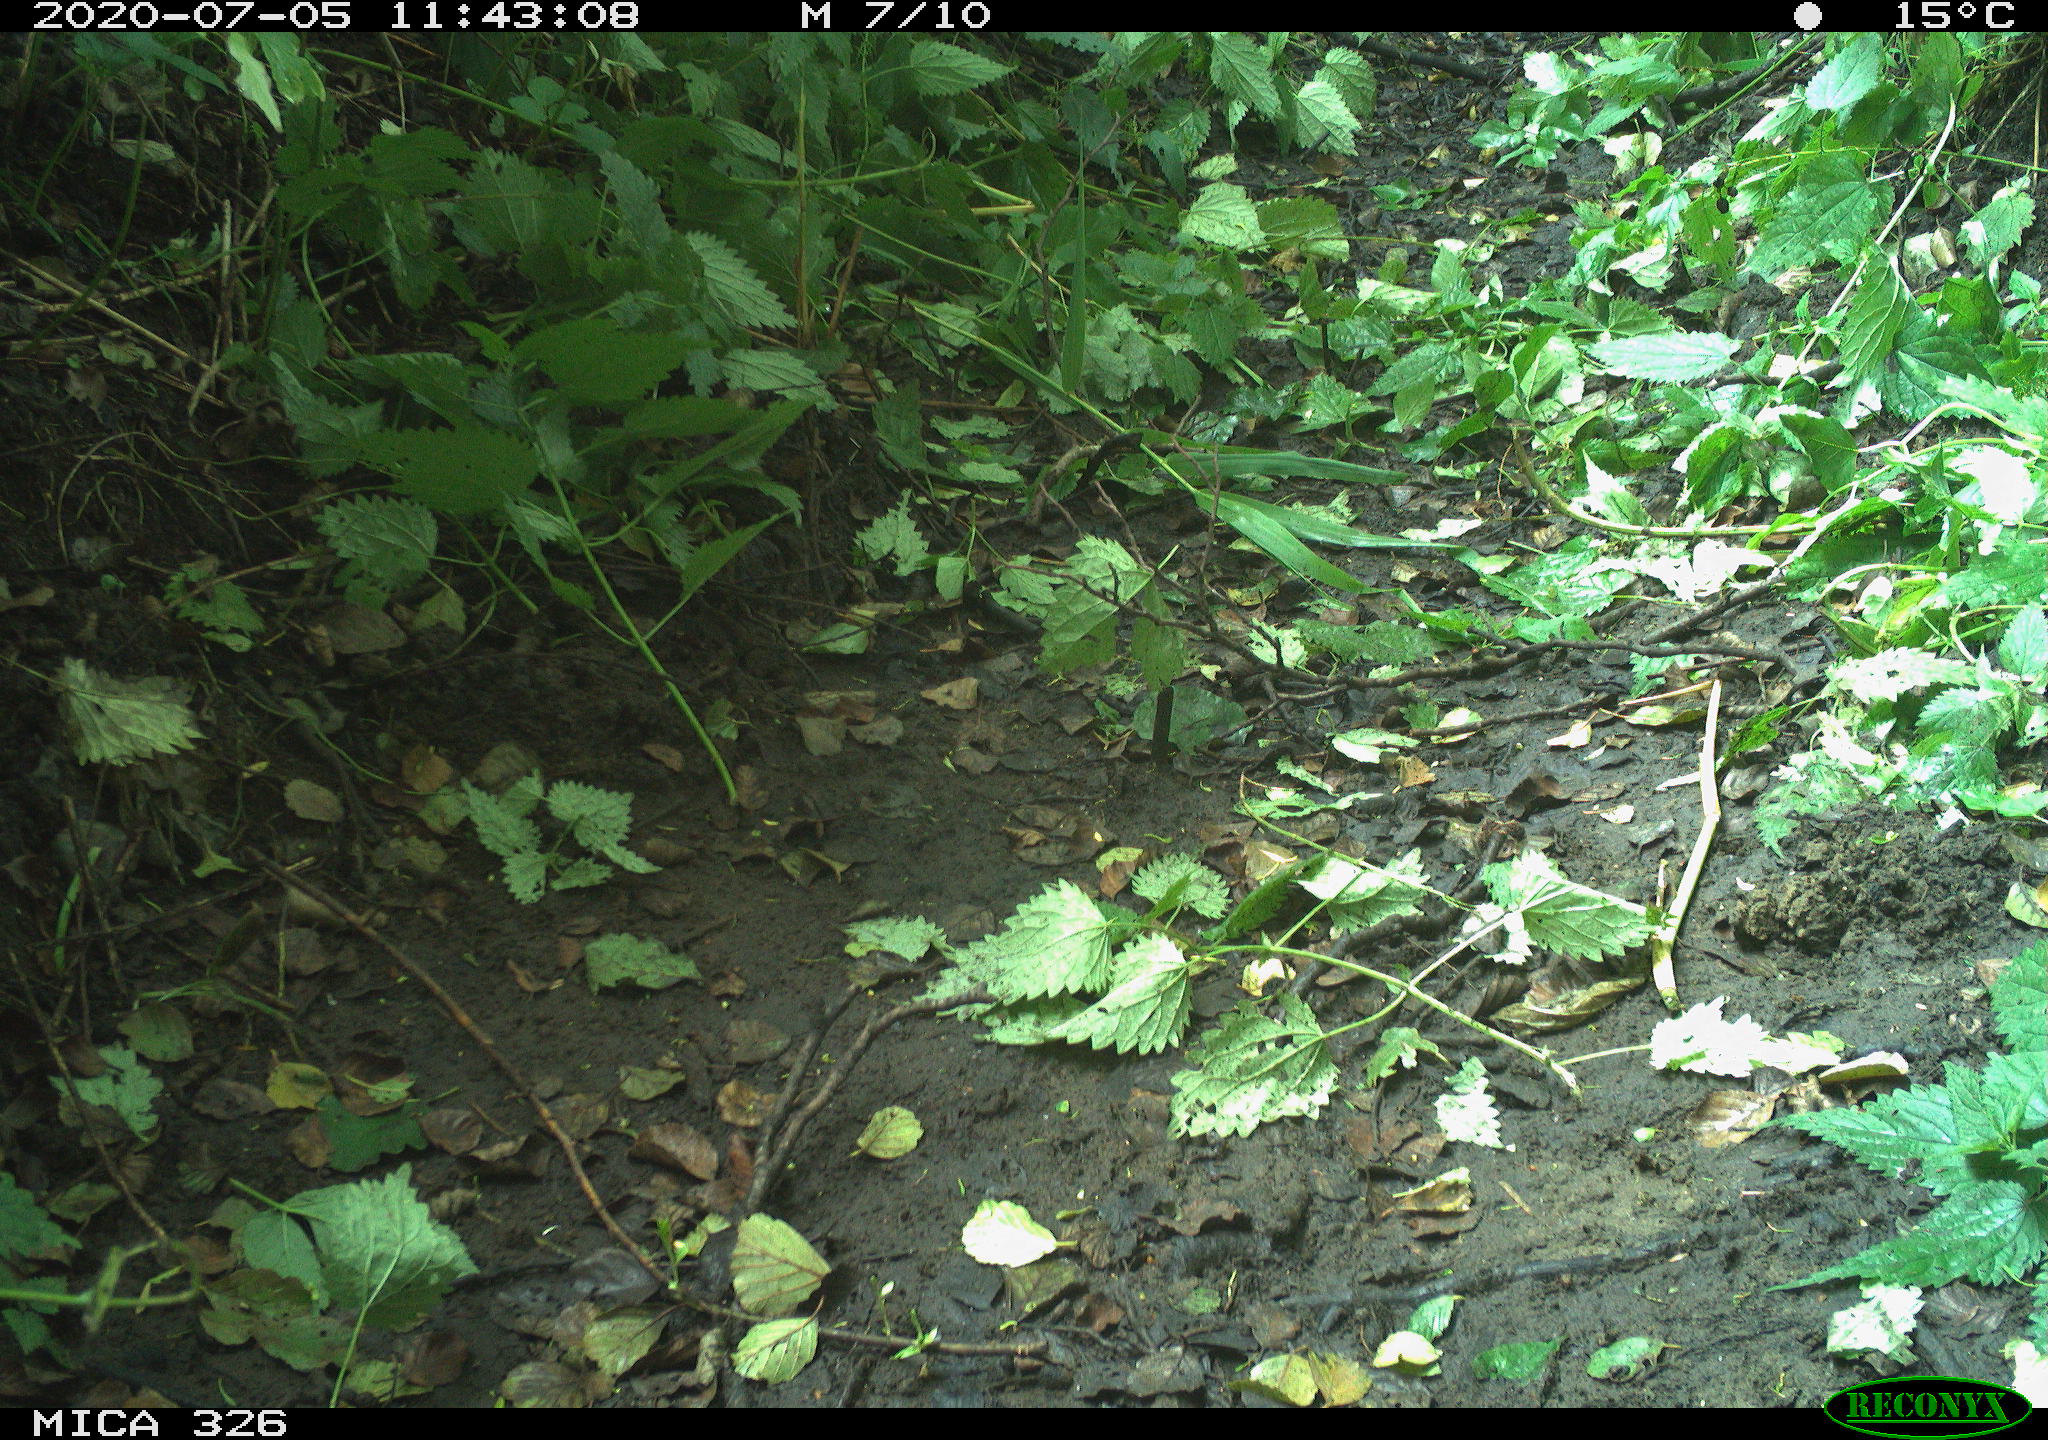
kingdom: Animalia
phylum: Chordata
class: Aves
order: Passeriformes
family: Muscicapidae
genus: Erithacus
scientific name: Erithacus rubecula
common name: European robin
